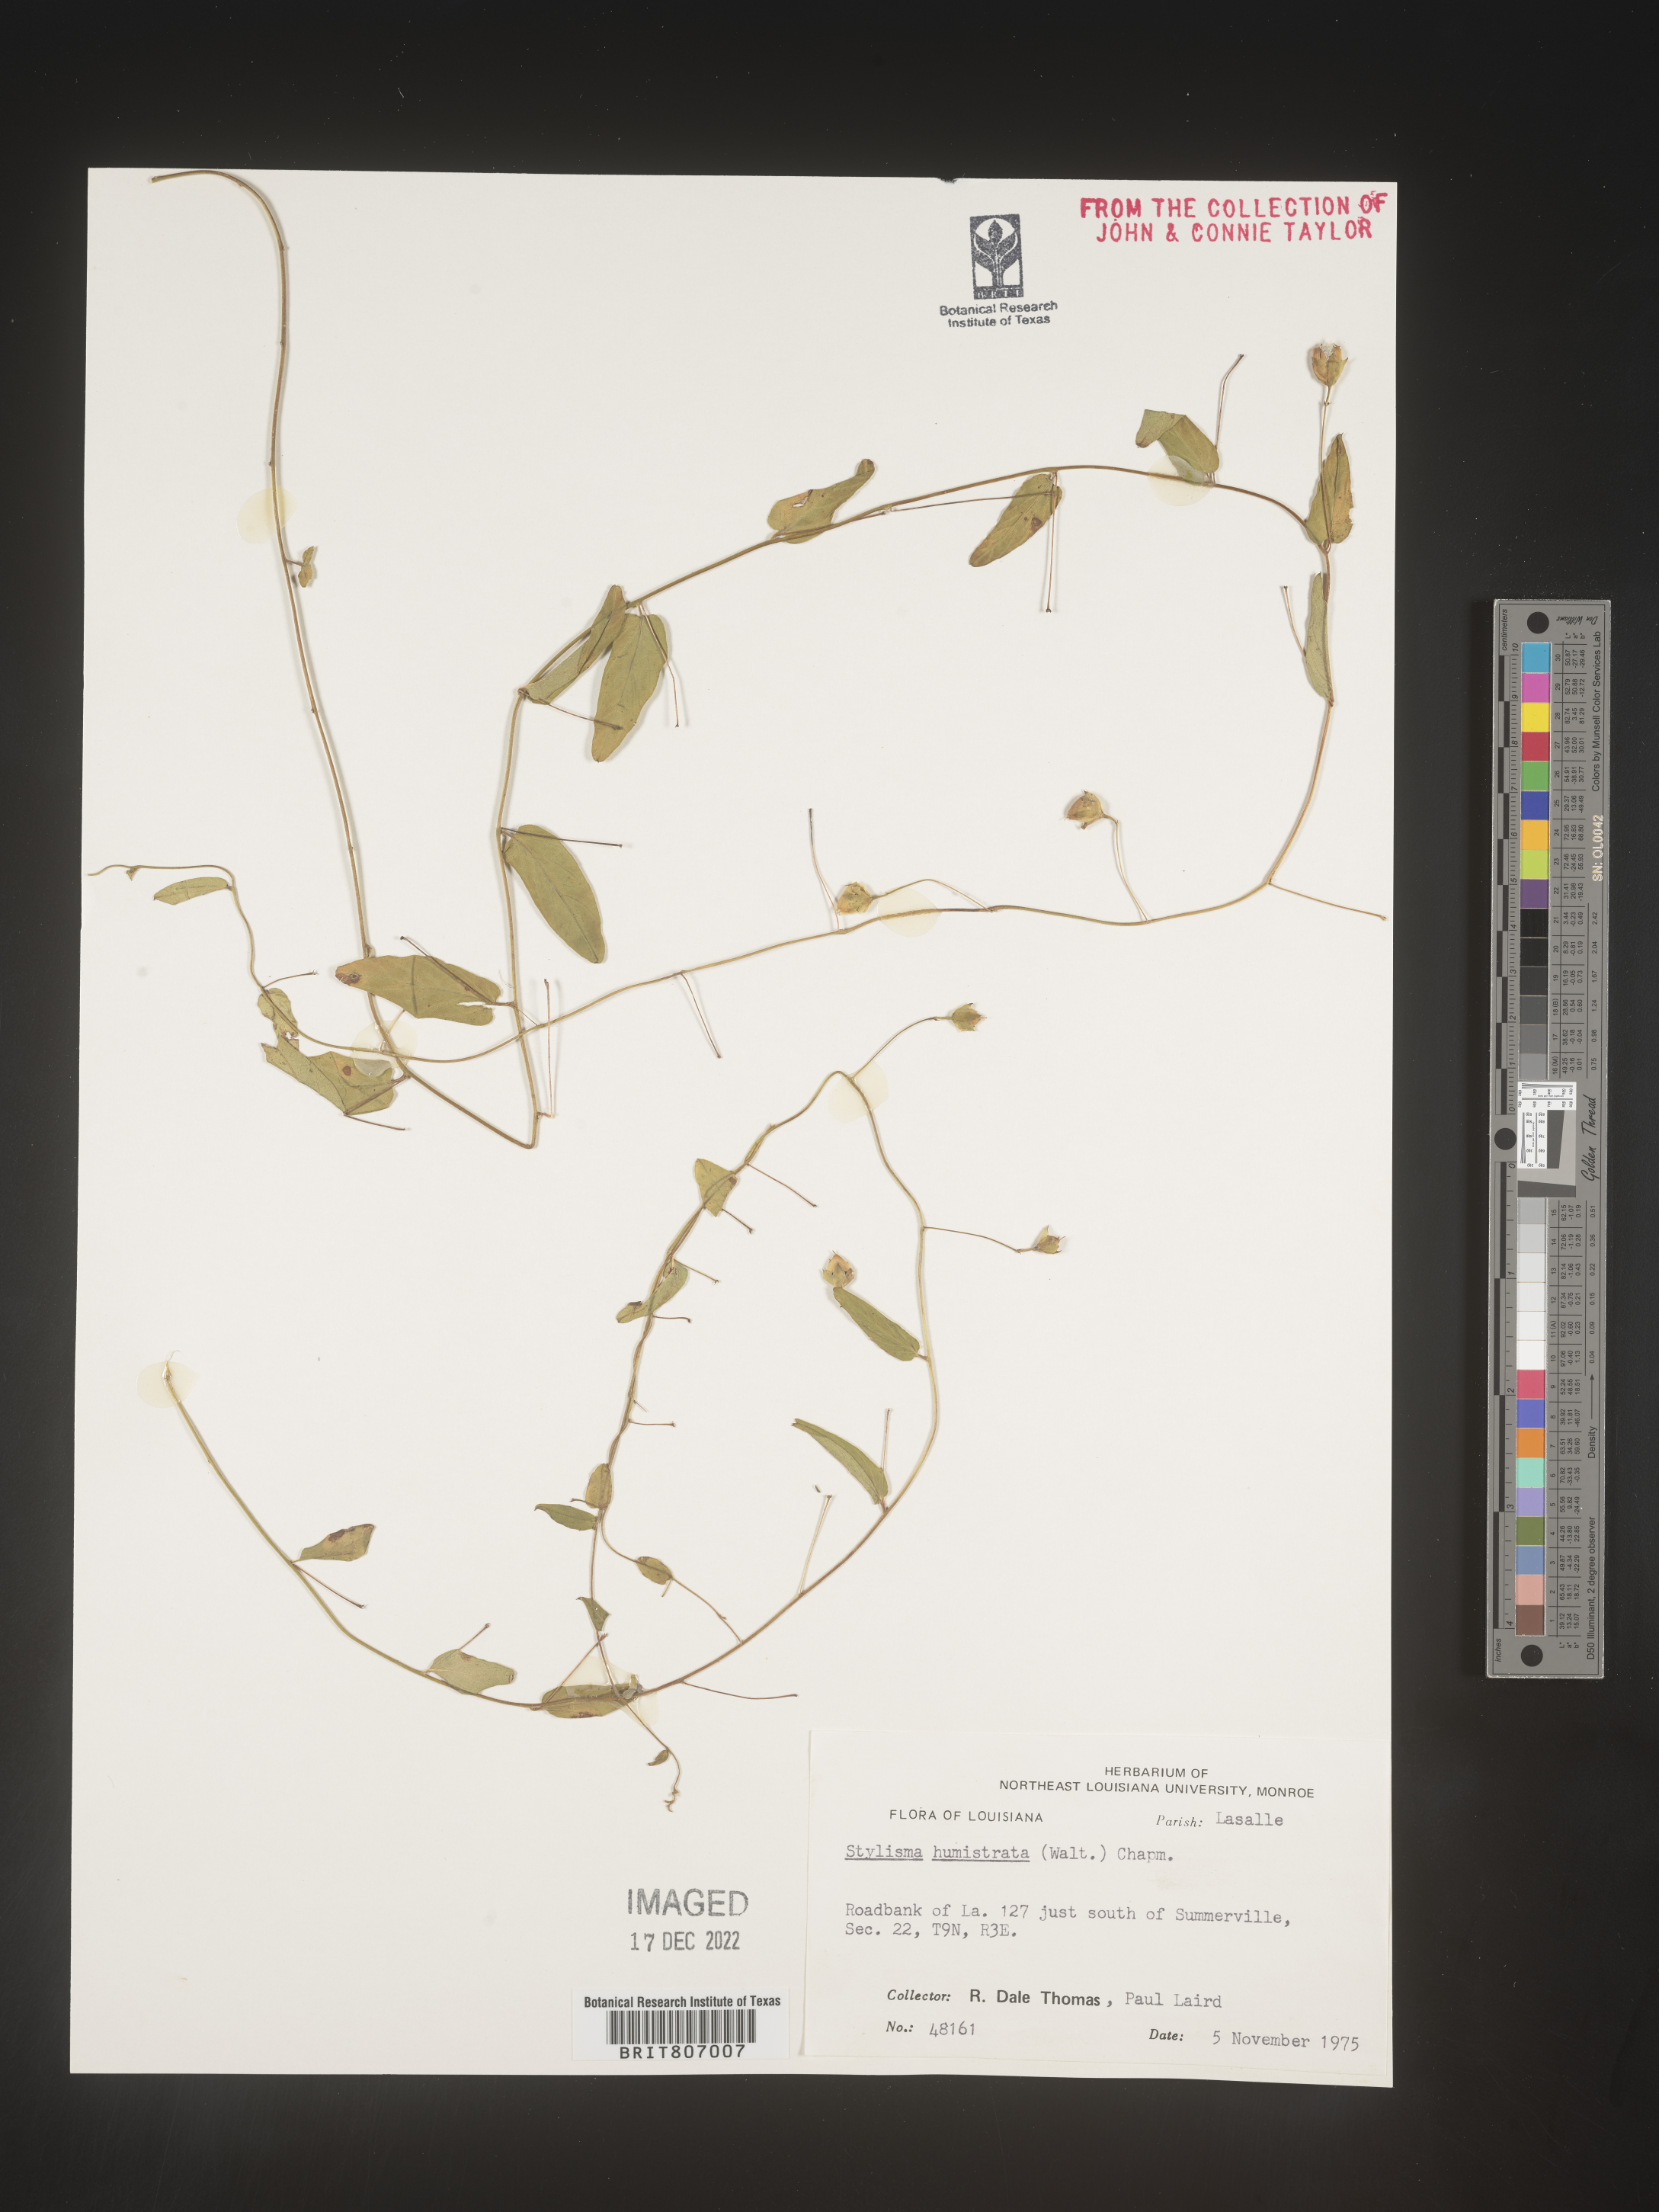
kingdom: Plantae
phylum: Tracheophyta
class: Magnoliopsida
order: Solanales
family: Convolvulaceae
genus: Stylisma
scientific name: Stylisma humistrata
